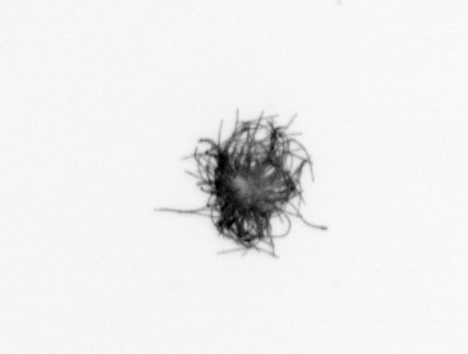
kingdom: Bacteria
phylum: Cyanobacteria
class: Cyanobacteriia
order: Cyanobacteriales
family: Microcoleaceae
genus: Trichodesmium
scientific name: Trichodesmium
